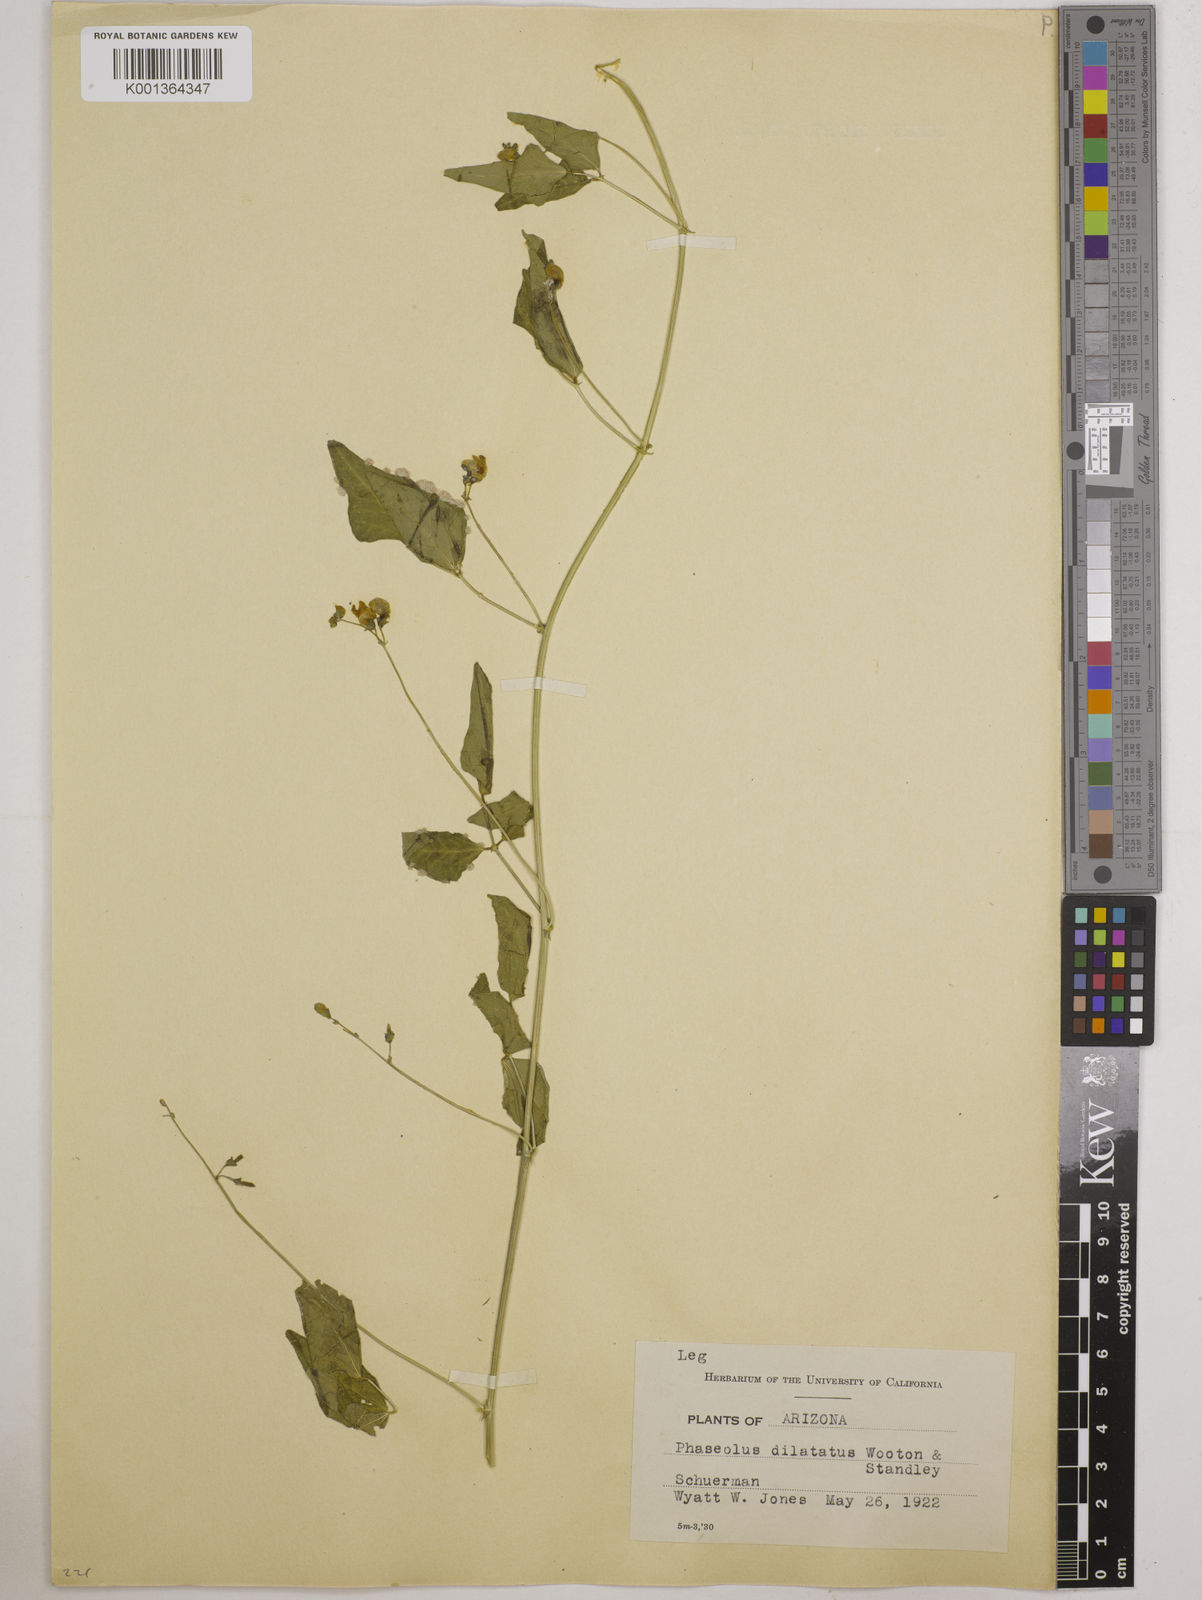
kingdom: Plantae
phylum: Tracheophyta
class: Magnoliopsida
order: Fabales
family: Fabaceae
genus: Phaseolus
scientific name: Phaseolus angustissimus
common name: Slimleaf bean
